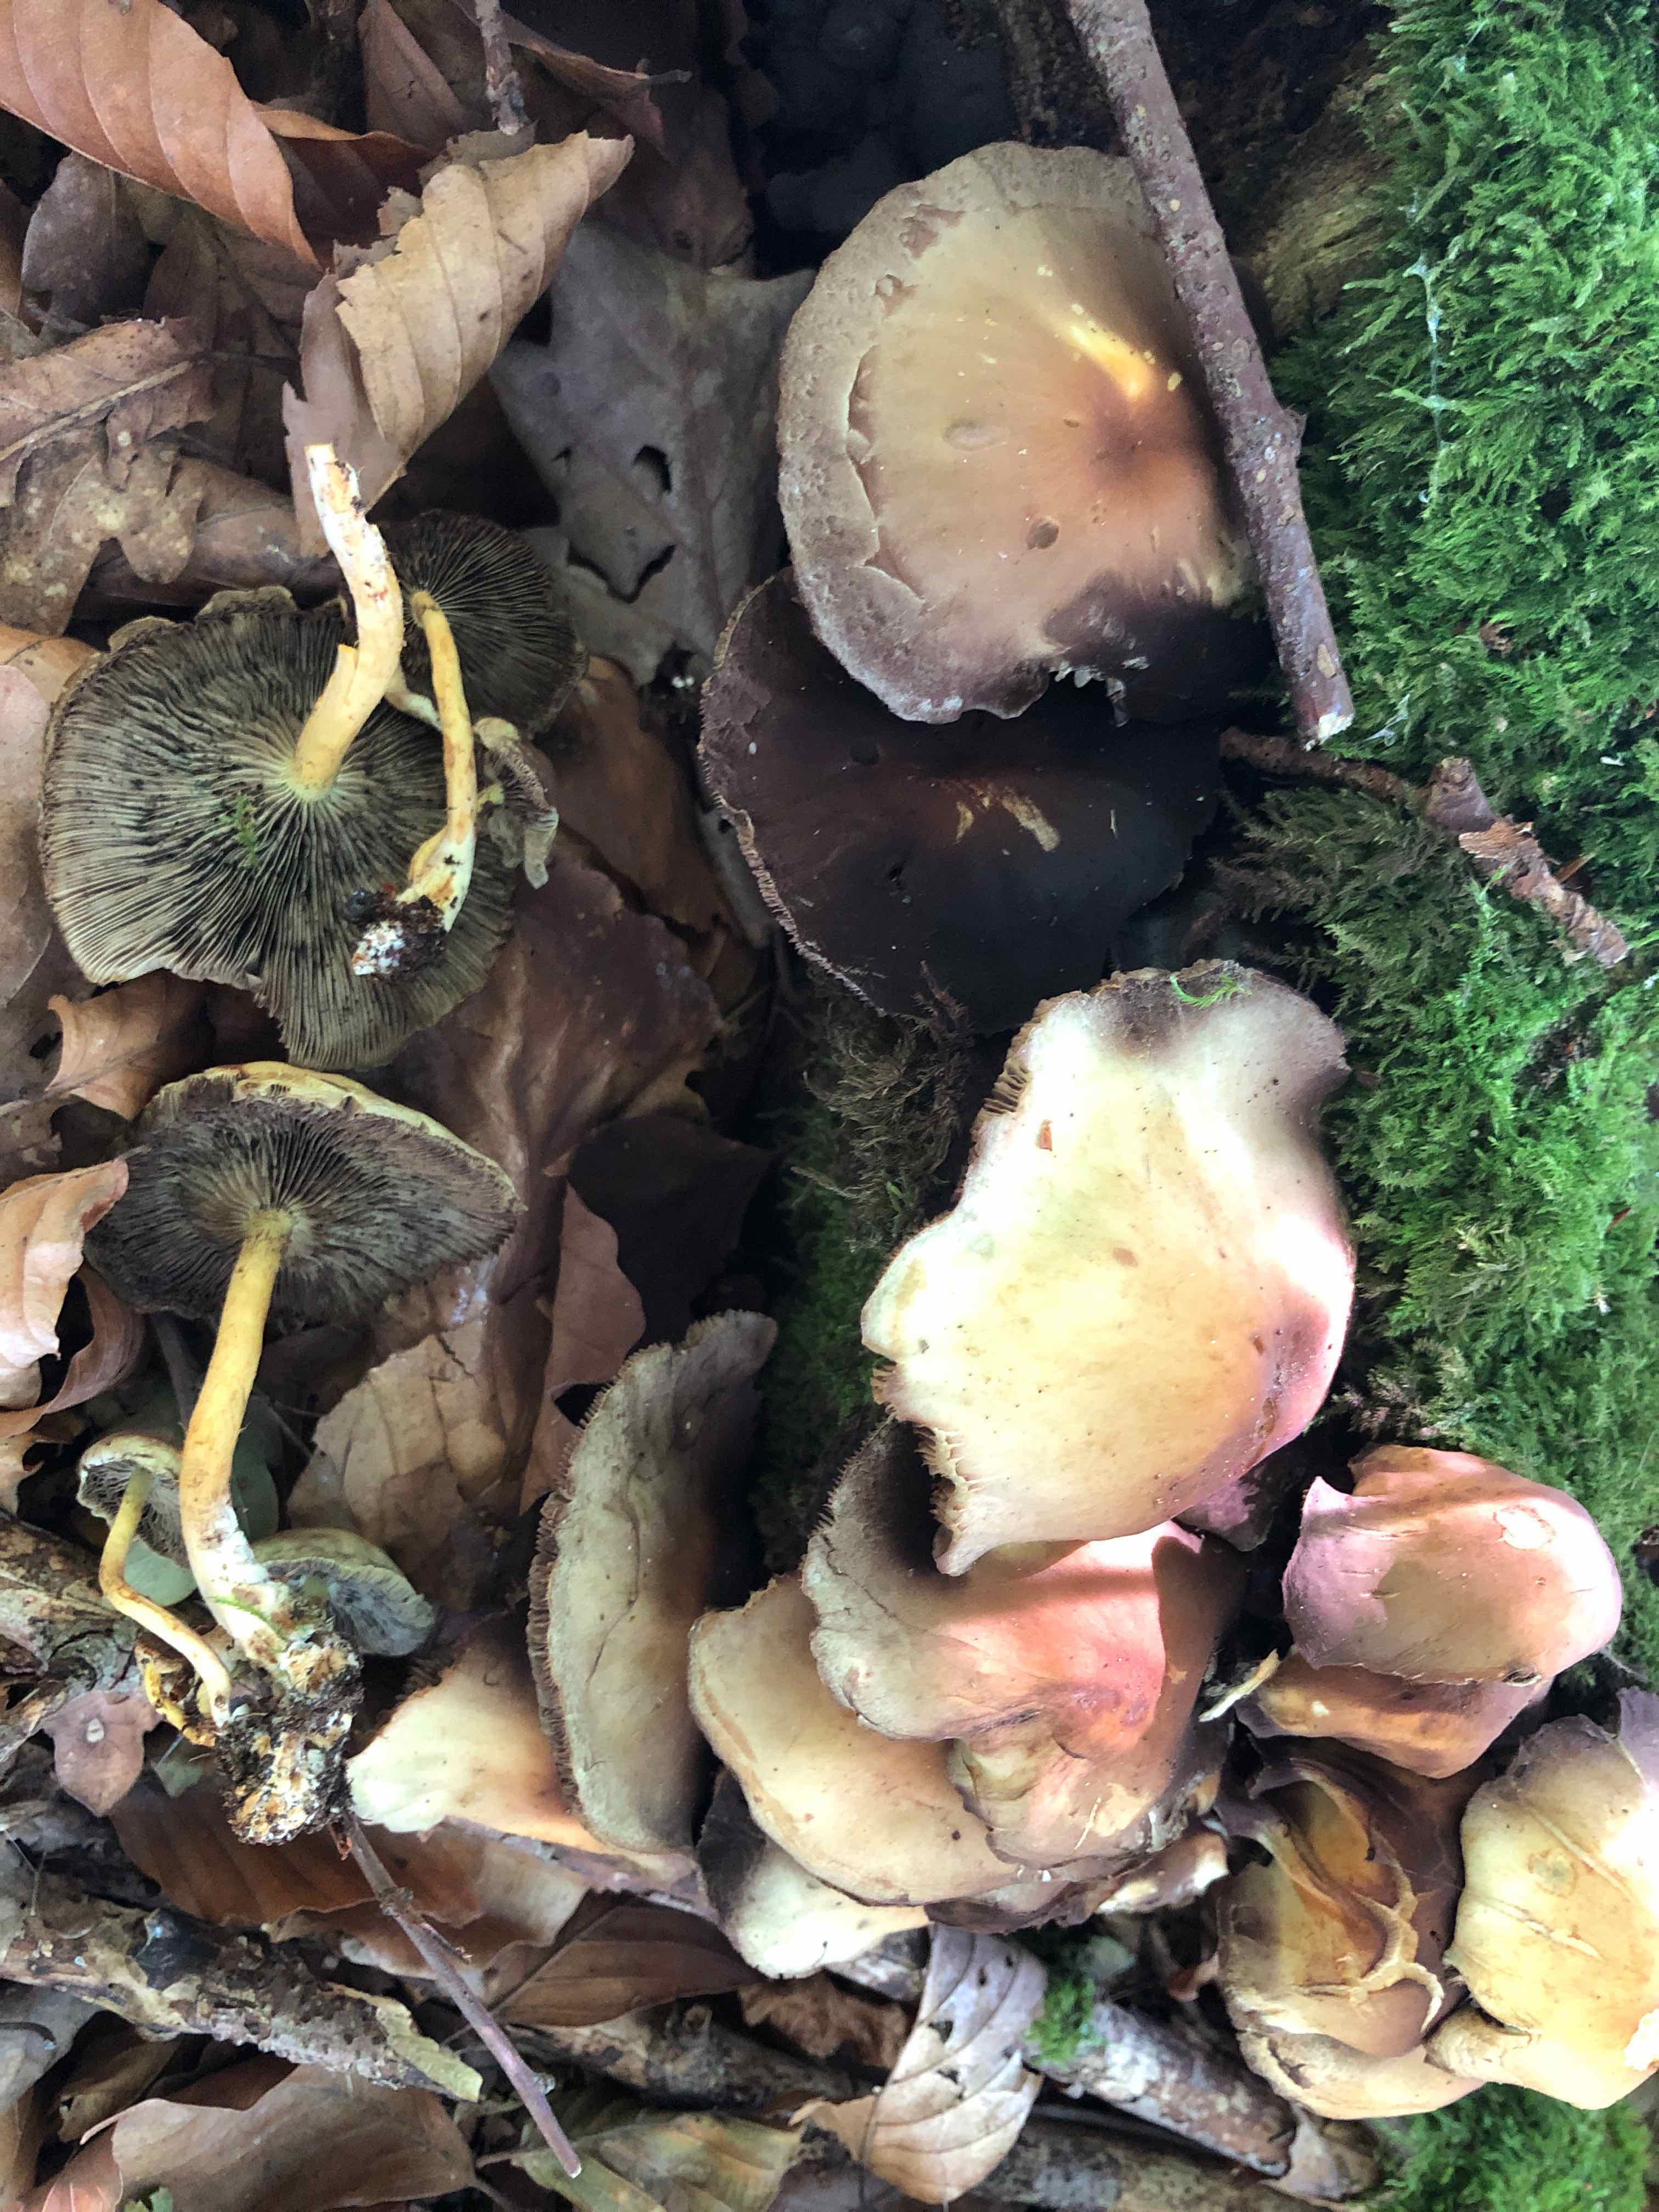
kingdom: Fungi
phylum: Basidiomycota
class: Agaricomycetes
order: Agaricales
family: Strophariaceae
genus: Hypholoma
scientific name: Hypholoma fasciculare
